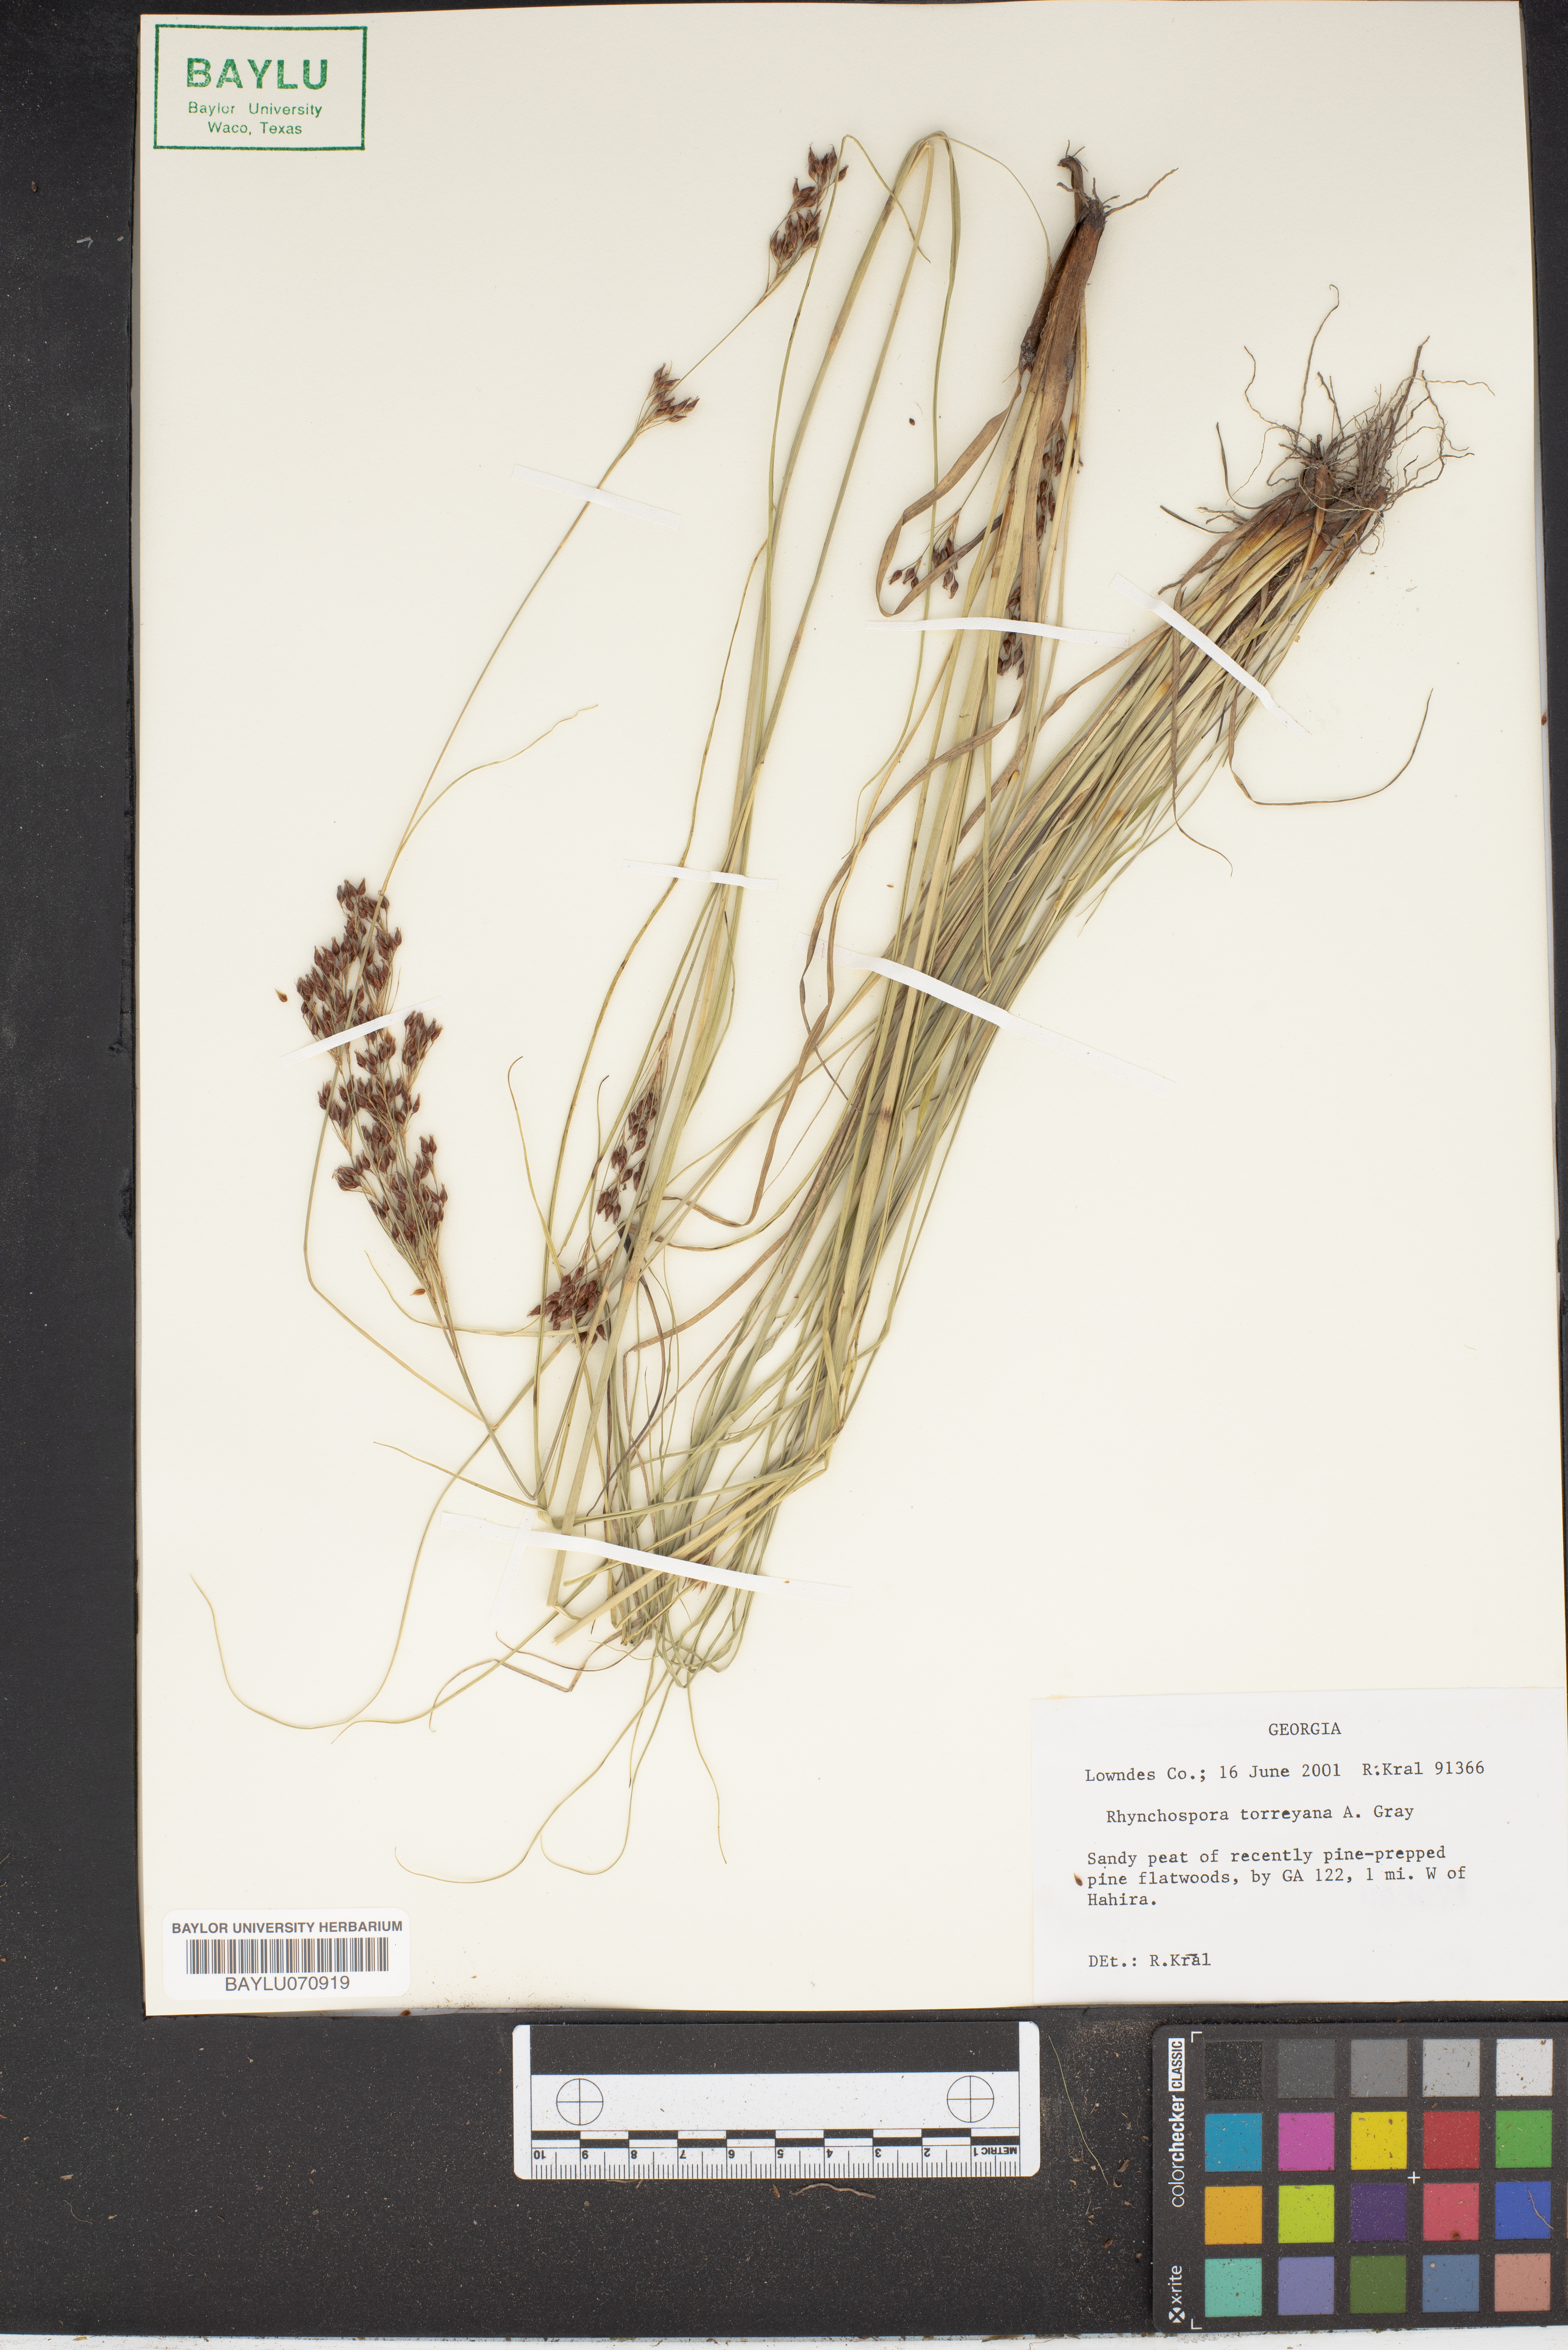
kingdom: Plantae
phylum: Tracheophyta
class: Liliopsida
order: Poales
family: Cyperaceae
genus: Rhynchospora
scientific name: Rhynchospora torreyana
